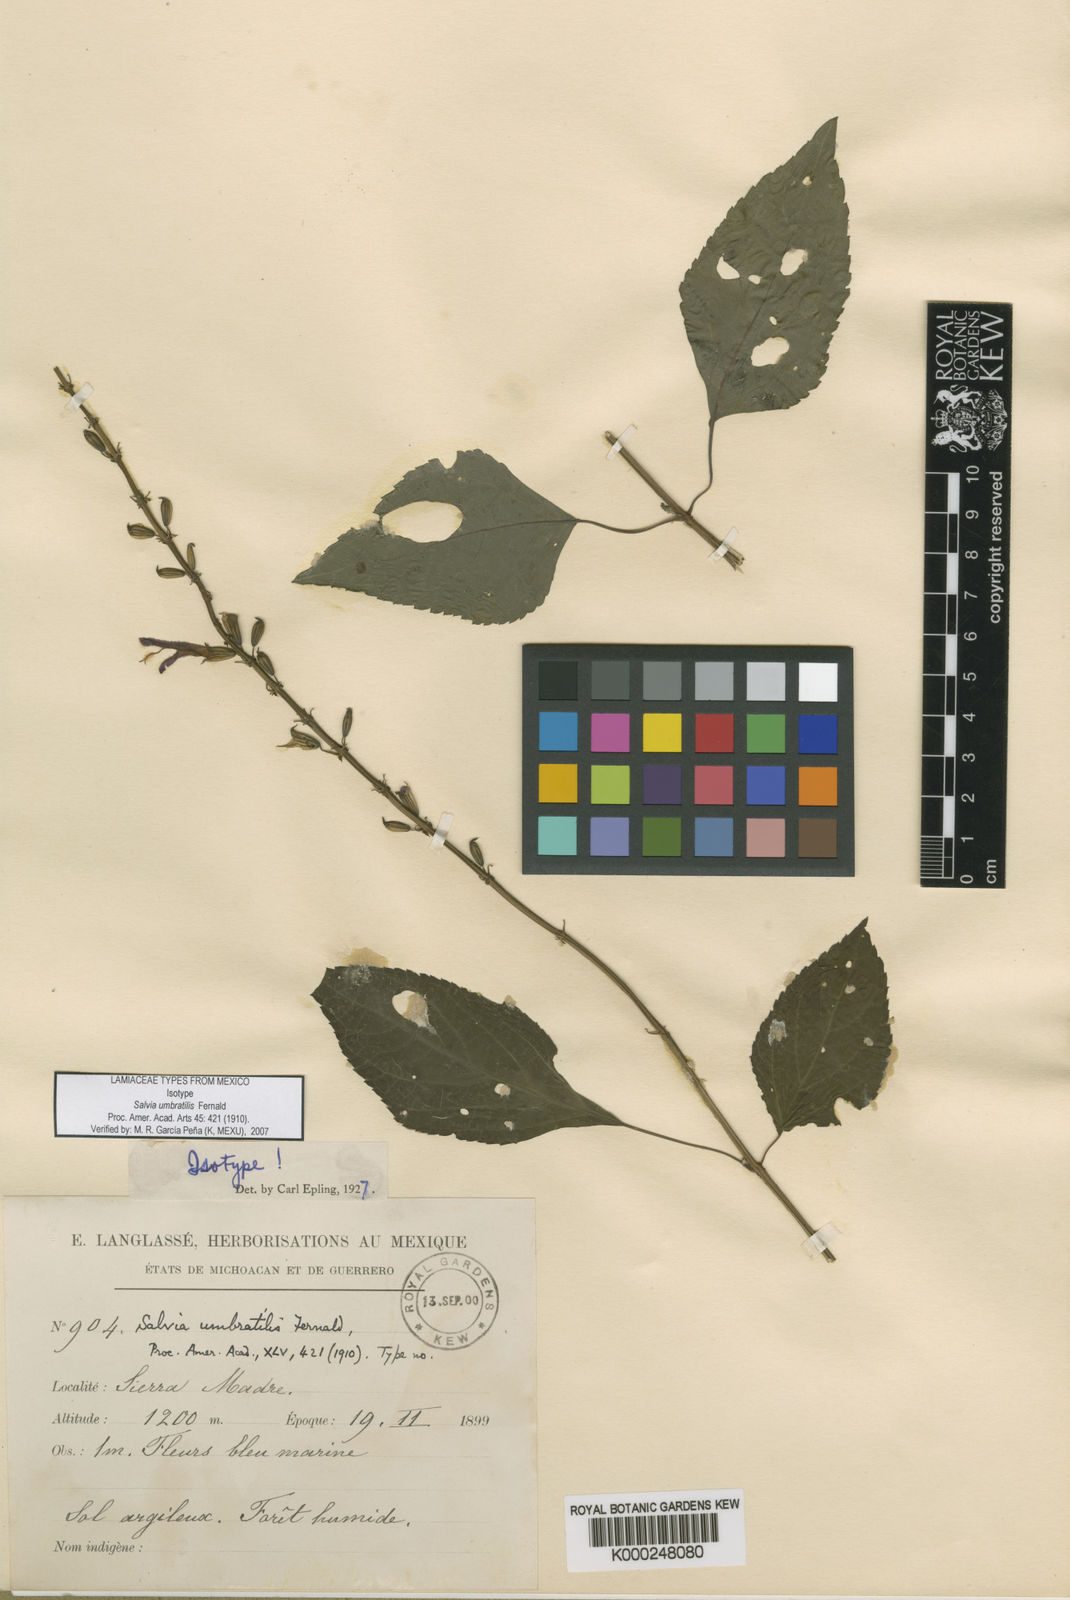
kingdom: Plantae
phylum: Tracheophyta
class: Magnoliopsida
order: Lamiales
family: Lamiaceae
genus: Salvia
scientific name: Salvia umbratilis
